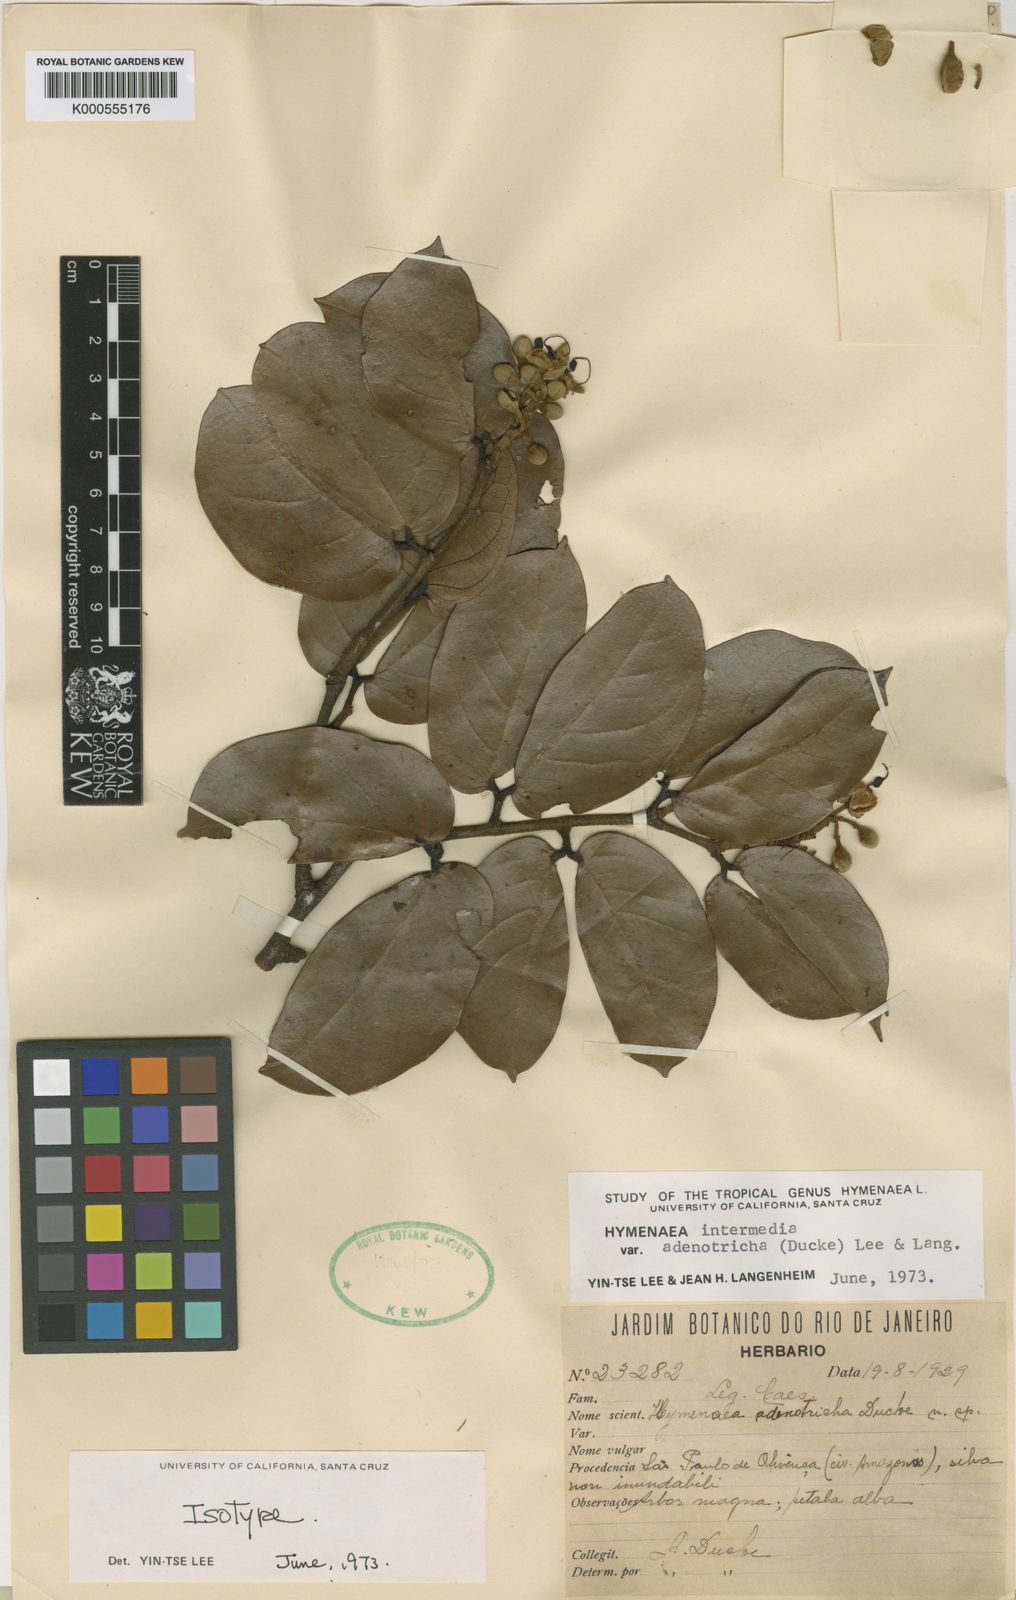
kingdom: Plantae
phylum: Tracheophyta
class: Magnoliopsida
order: Fabales
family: Fabaceae
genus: Hymenaea
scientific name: Hymenaea intermedia
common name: South american copal
